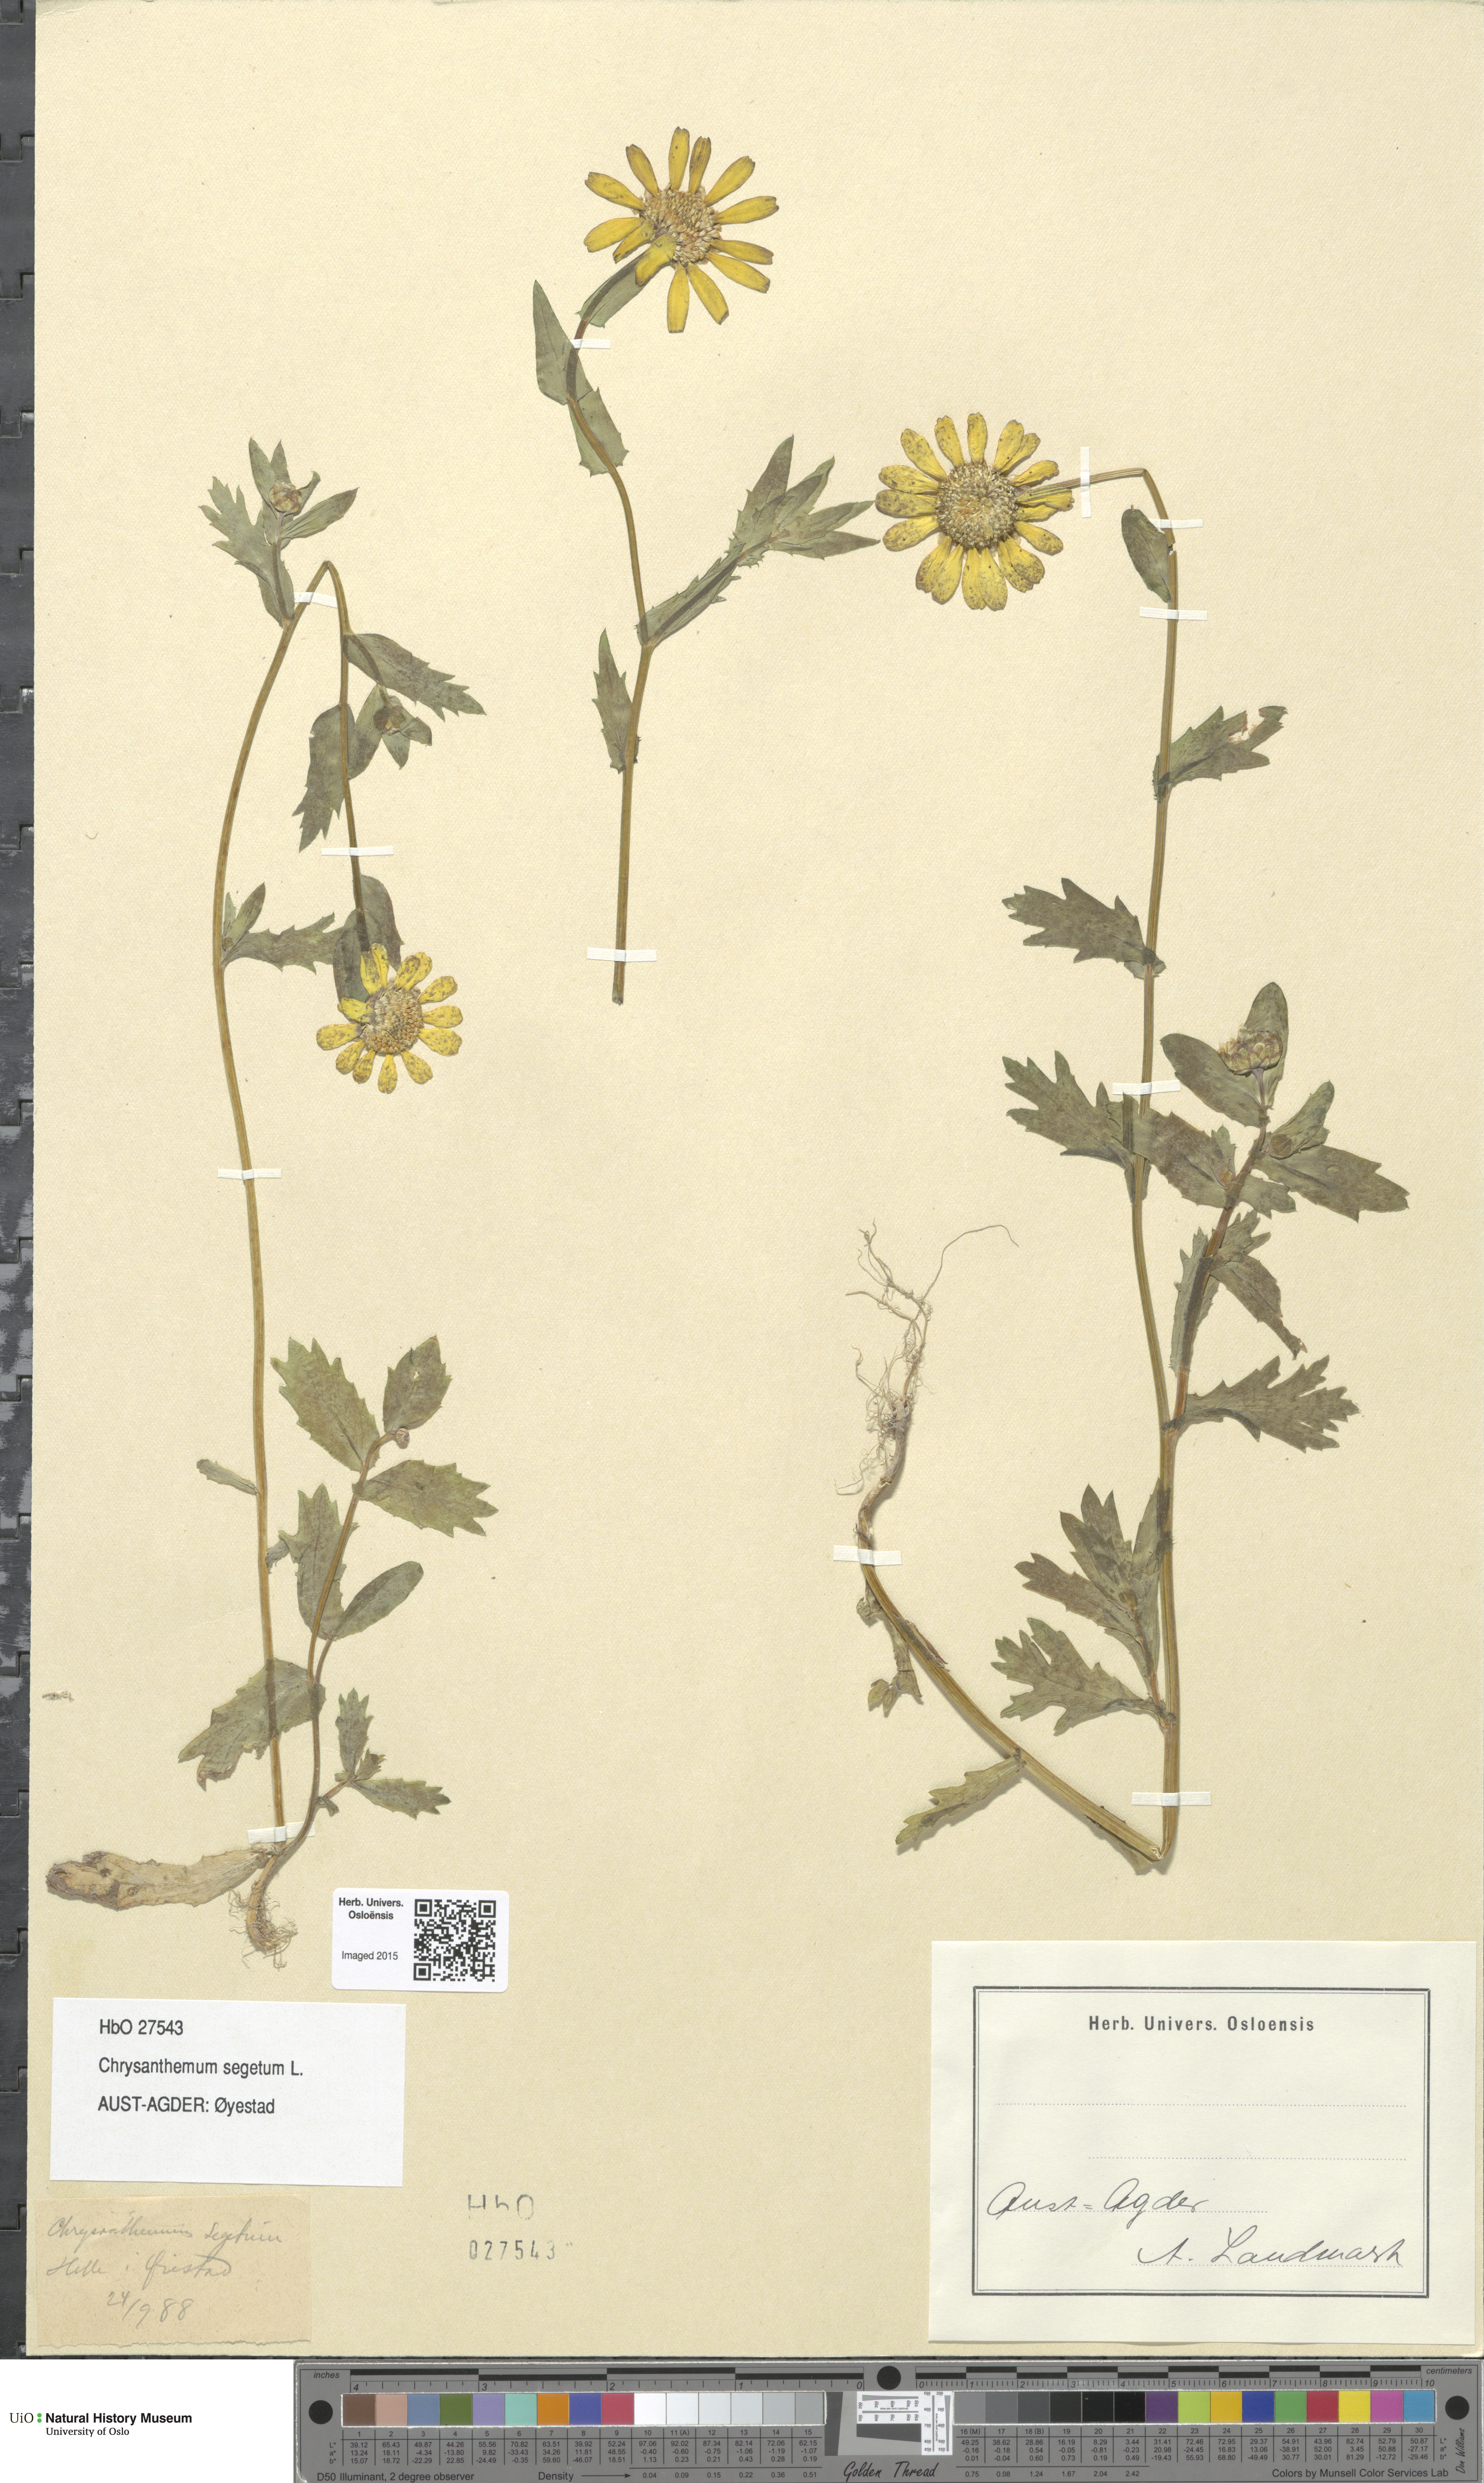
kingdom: Plantae
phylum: Tracheophyta
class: Magnoliopsida
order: Asterales
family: Asteraceae
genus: Glebionis
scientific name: Glebionis segetum
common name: Corndaisy
